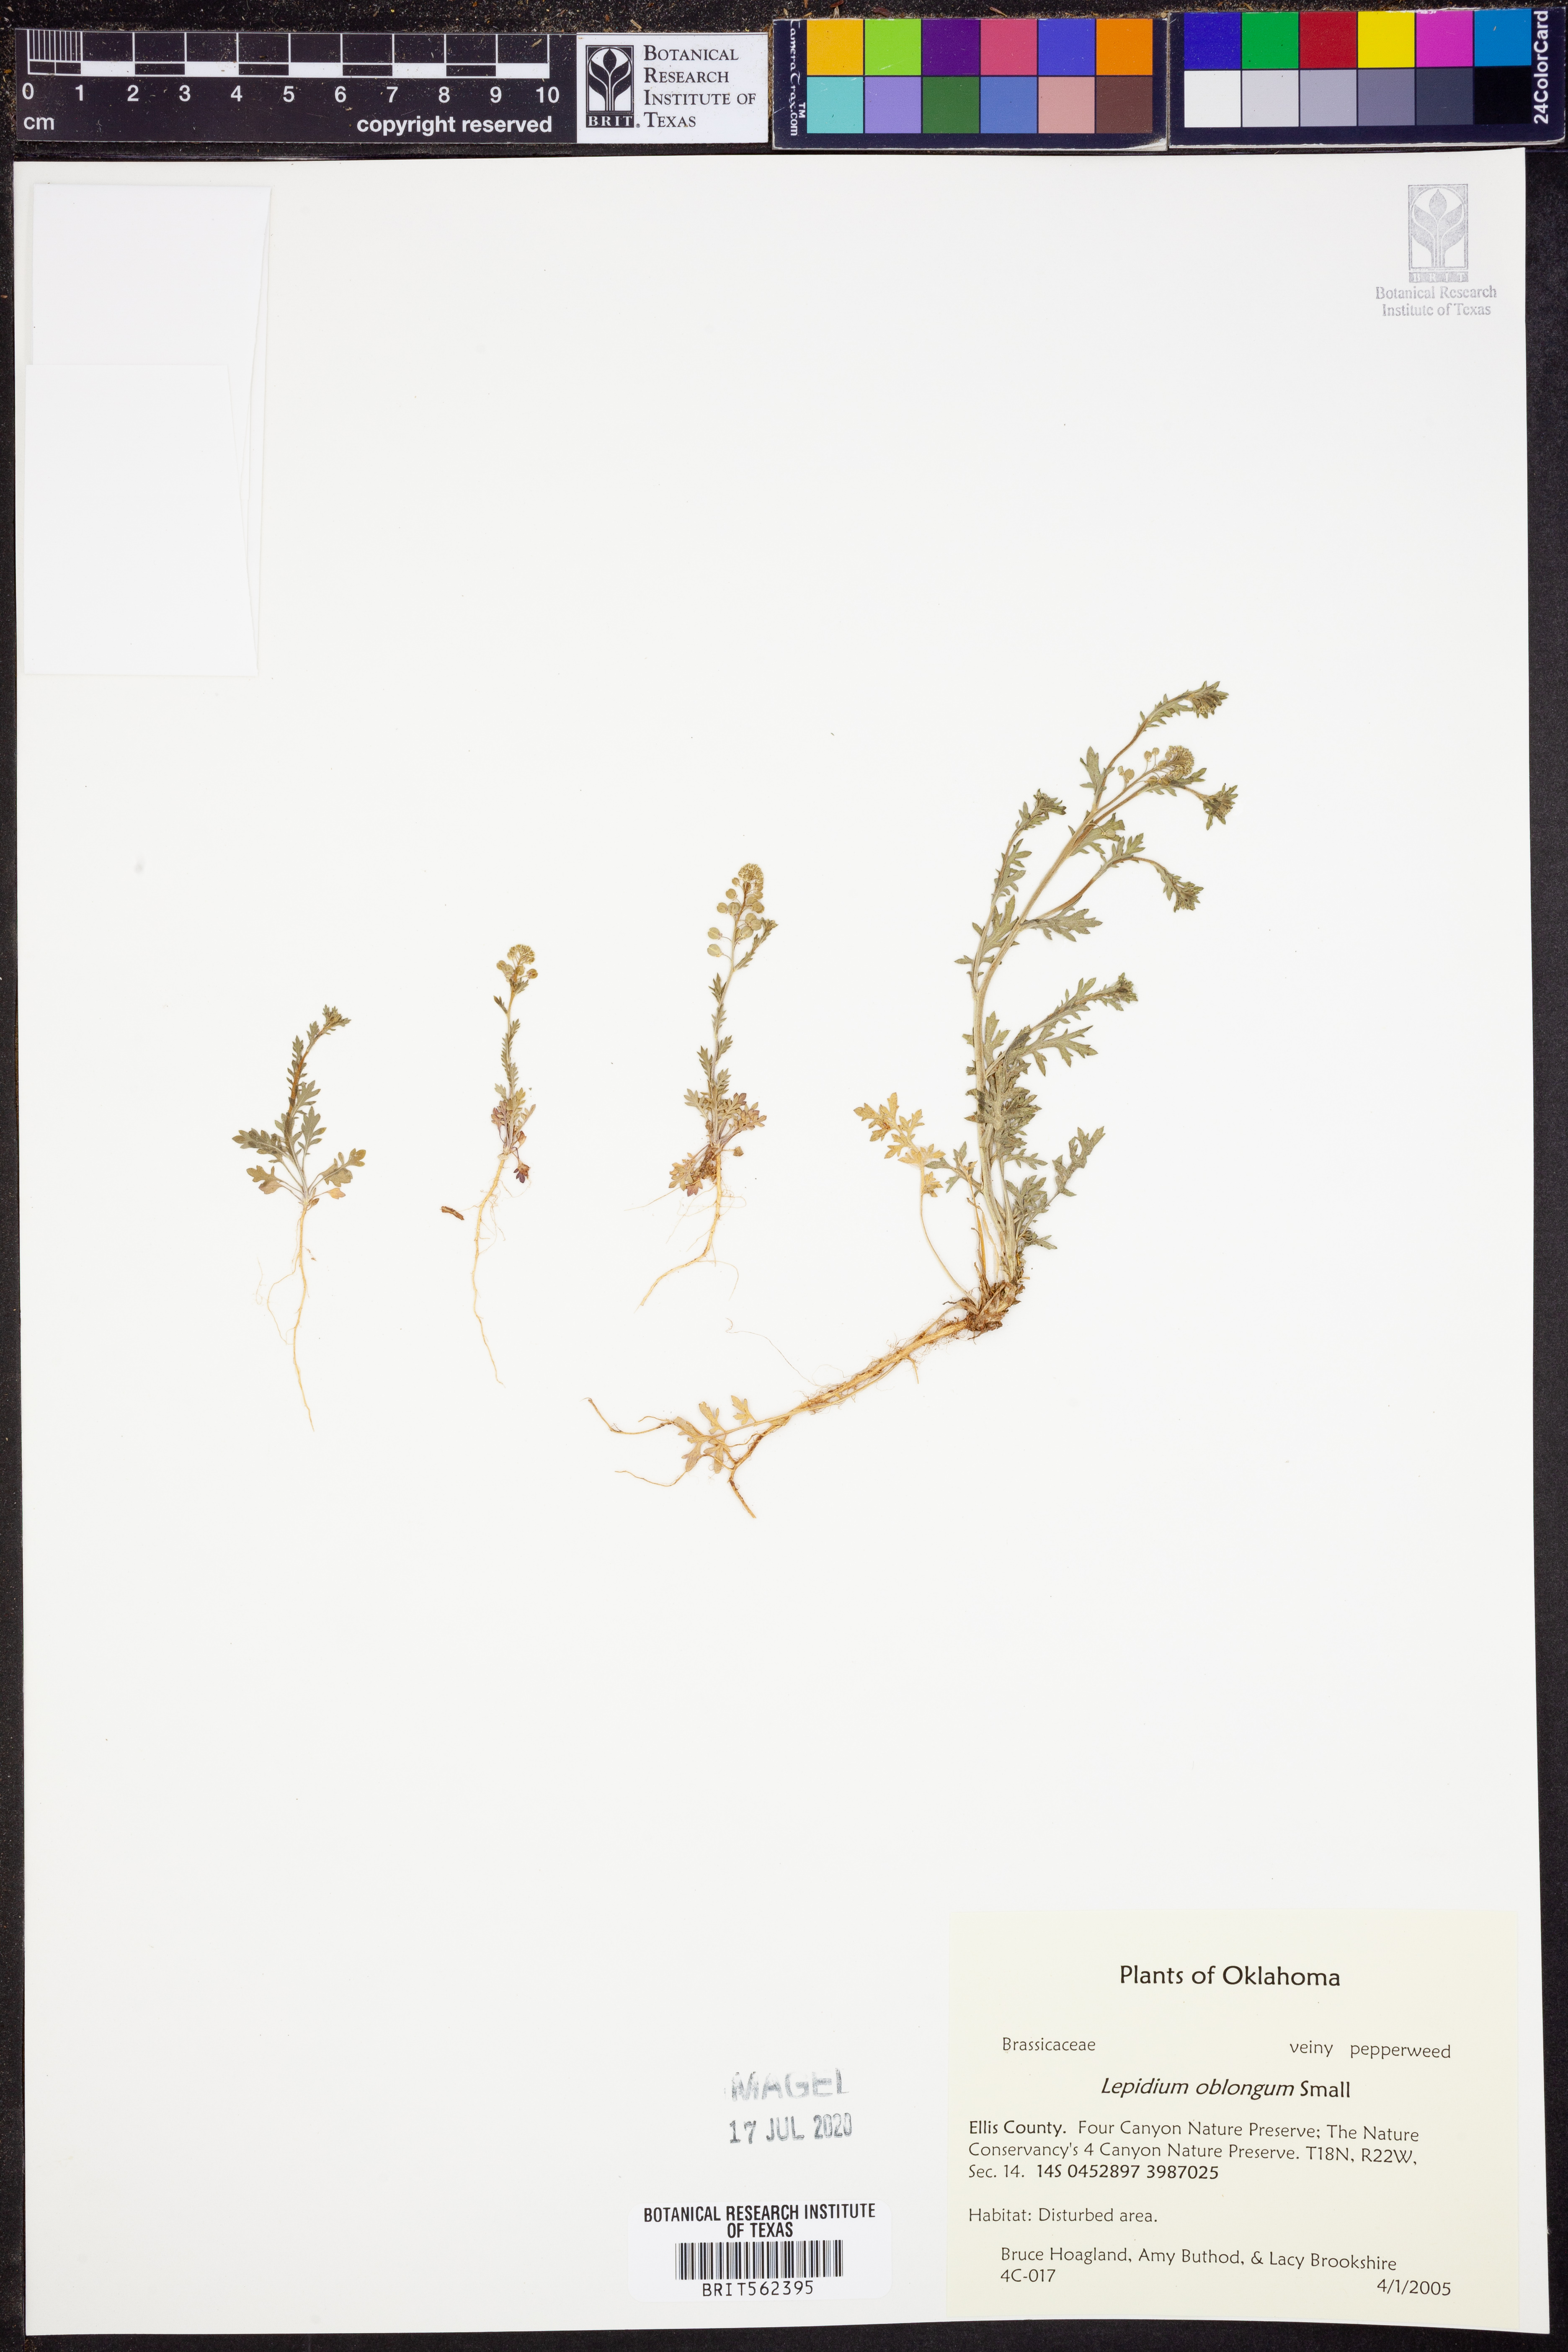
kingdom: Plantae
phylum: Tracheophyta
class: Magnoliopsida
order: Brassicales
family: Brassicaceae
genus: Lepidium
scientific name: Lepidium oblongum
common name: Veiny pepperweed
